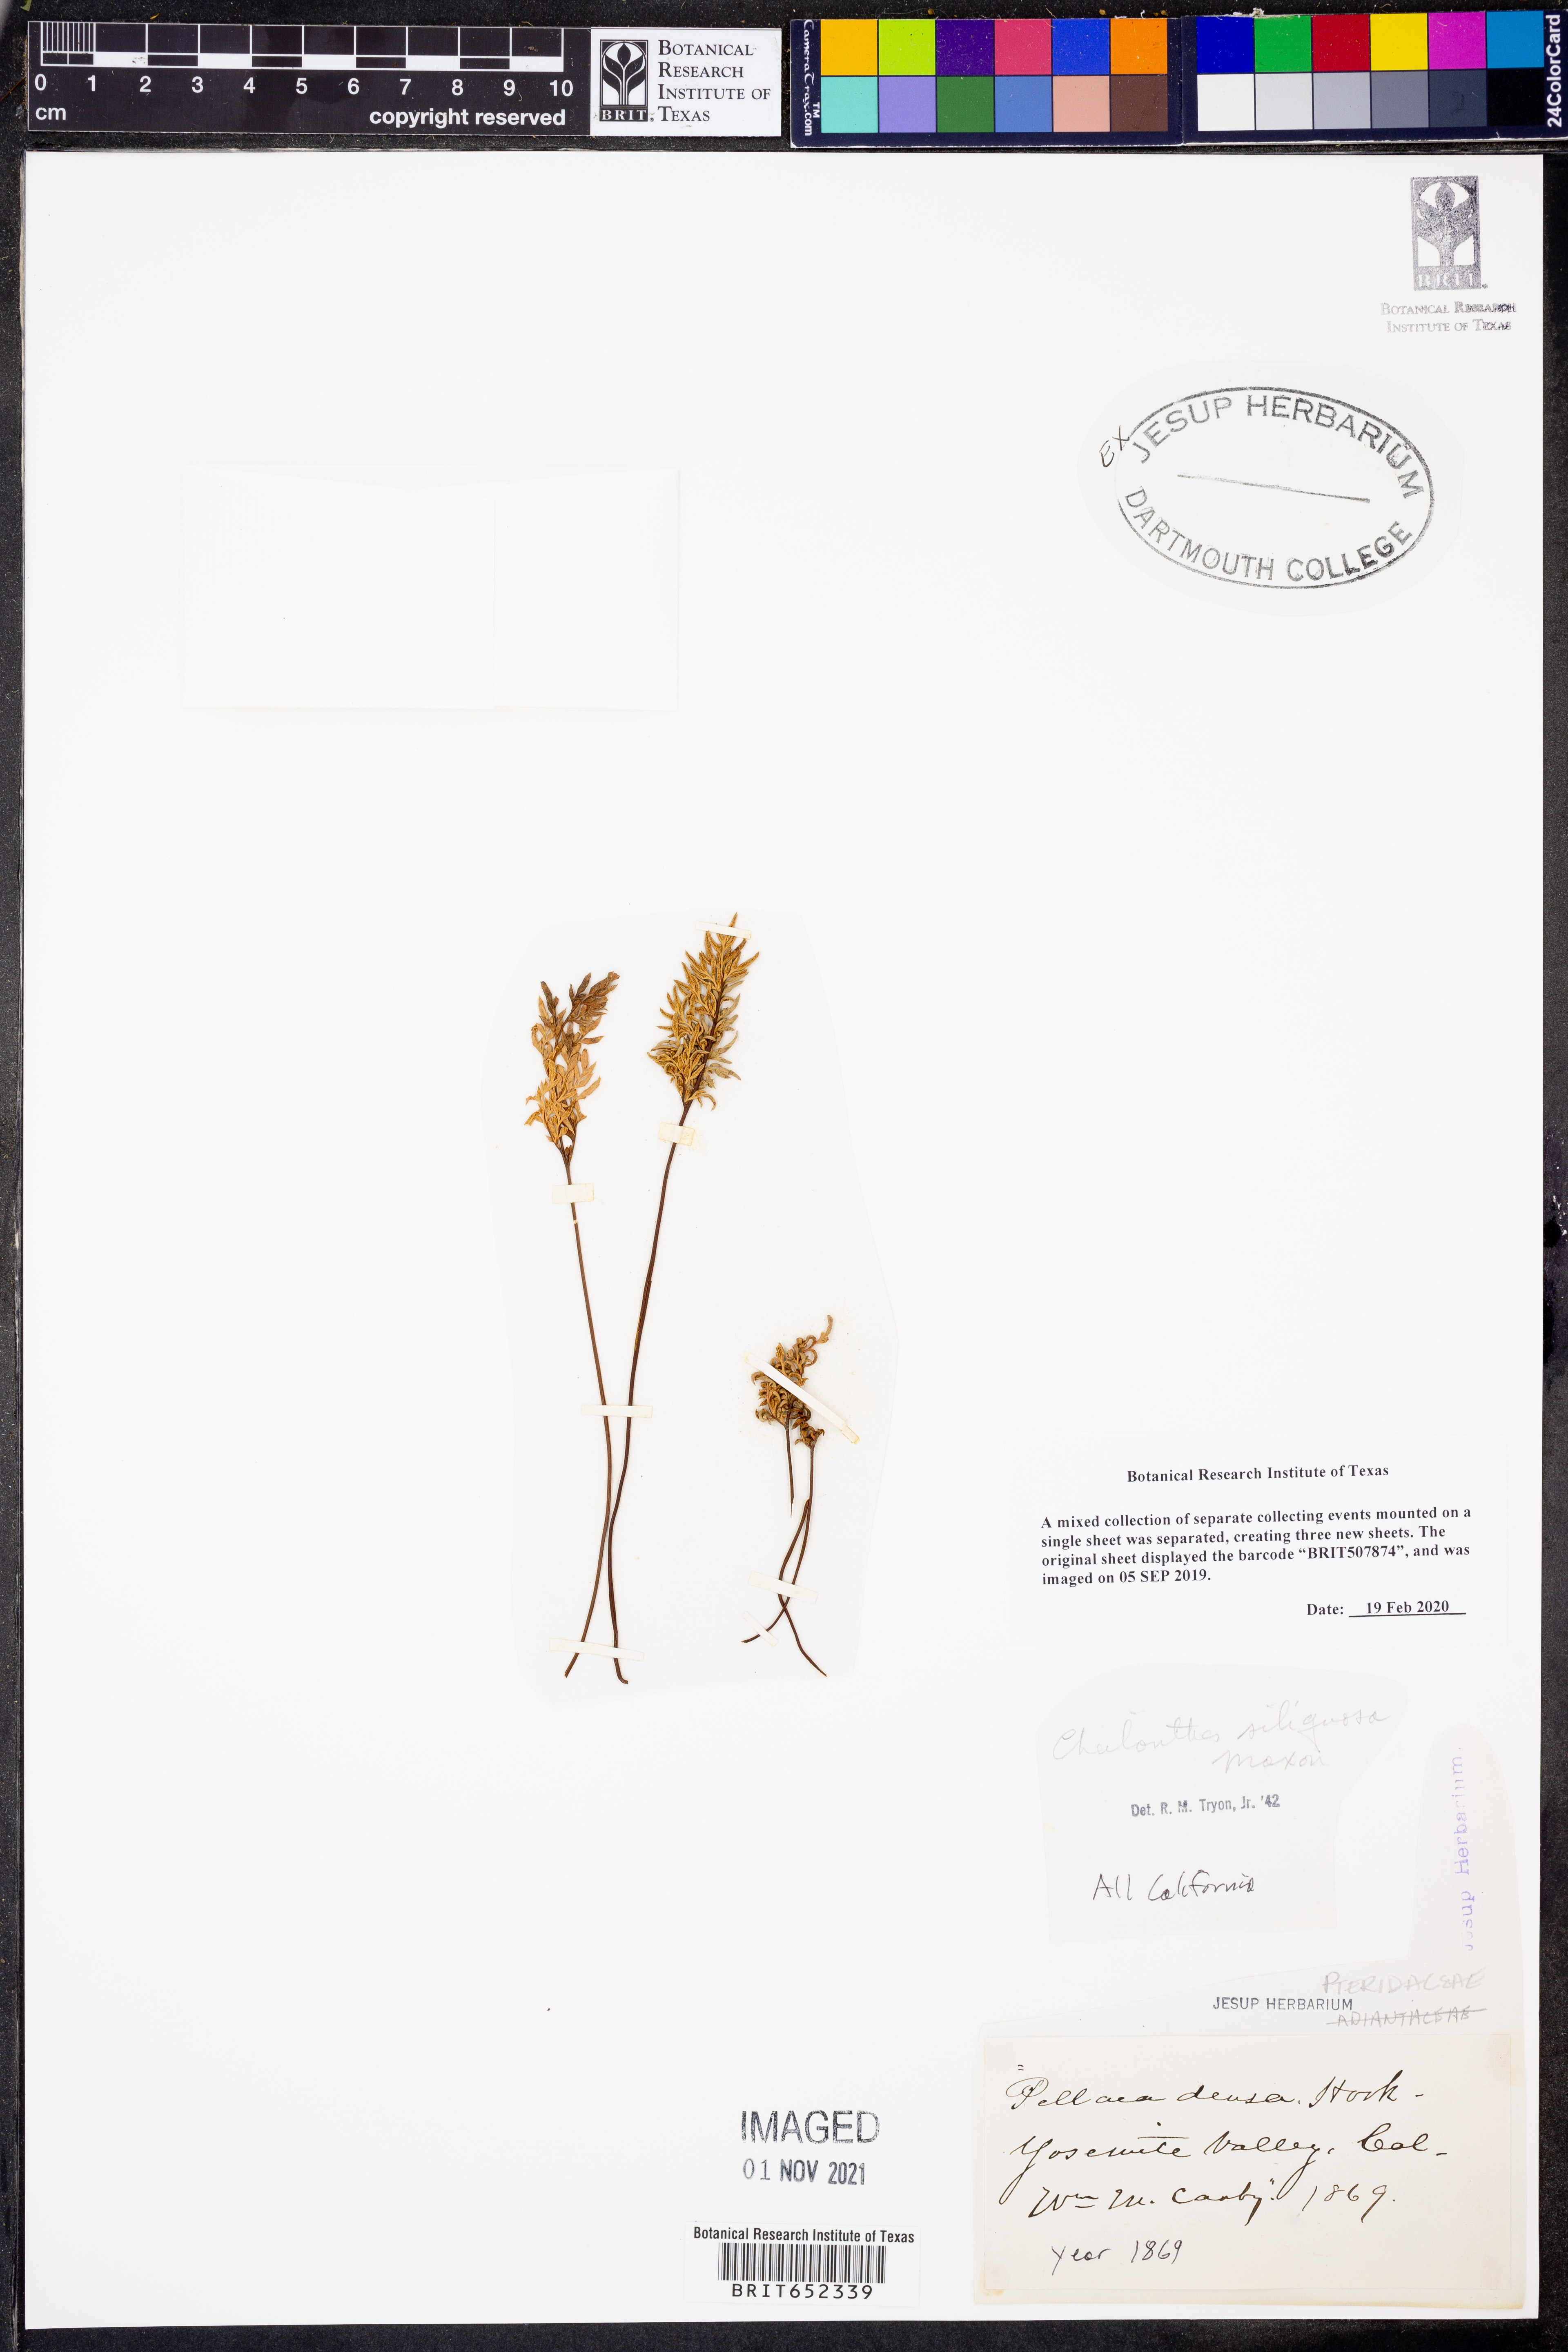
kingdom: Plantae
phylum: Tracheophyta
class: Polypodiopsida
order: Polypodiales
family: Pteridaceae
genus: Aspidotis
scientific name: Aspidotis densa
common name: Indian's dream
